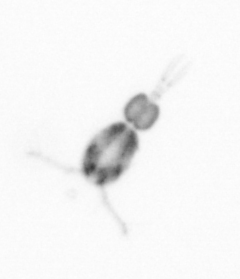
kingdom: Animalia
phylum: Arthropoda
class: Copepoda
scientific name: Copepoda
